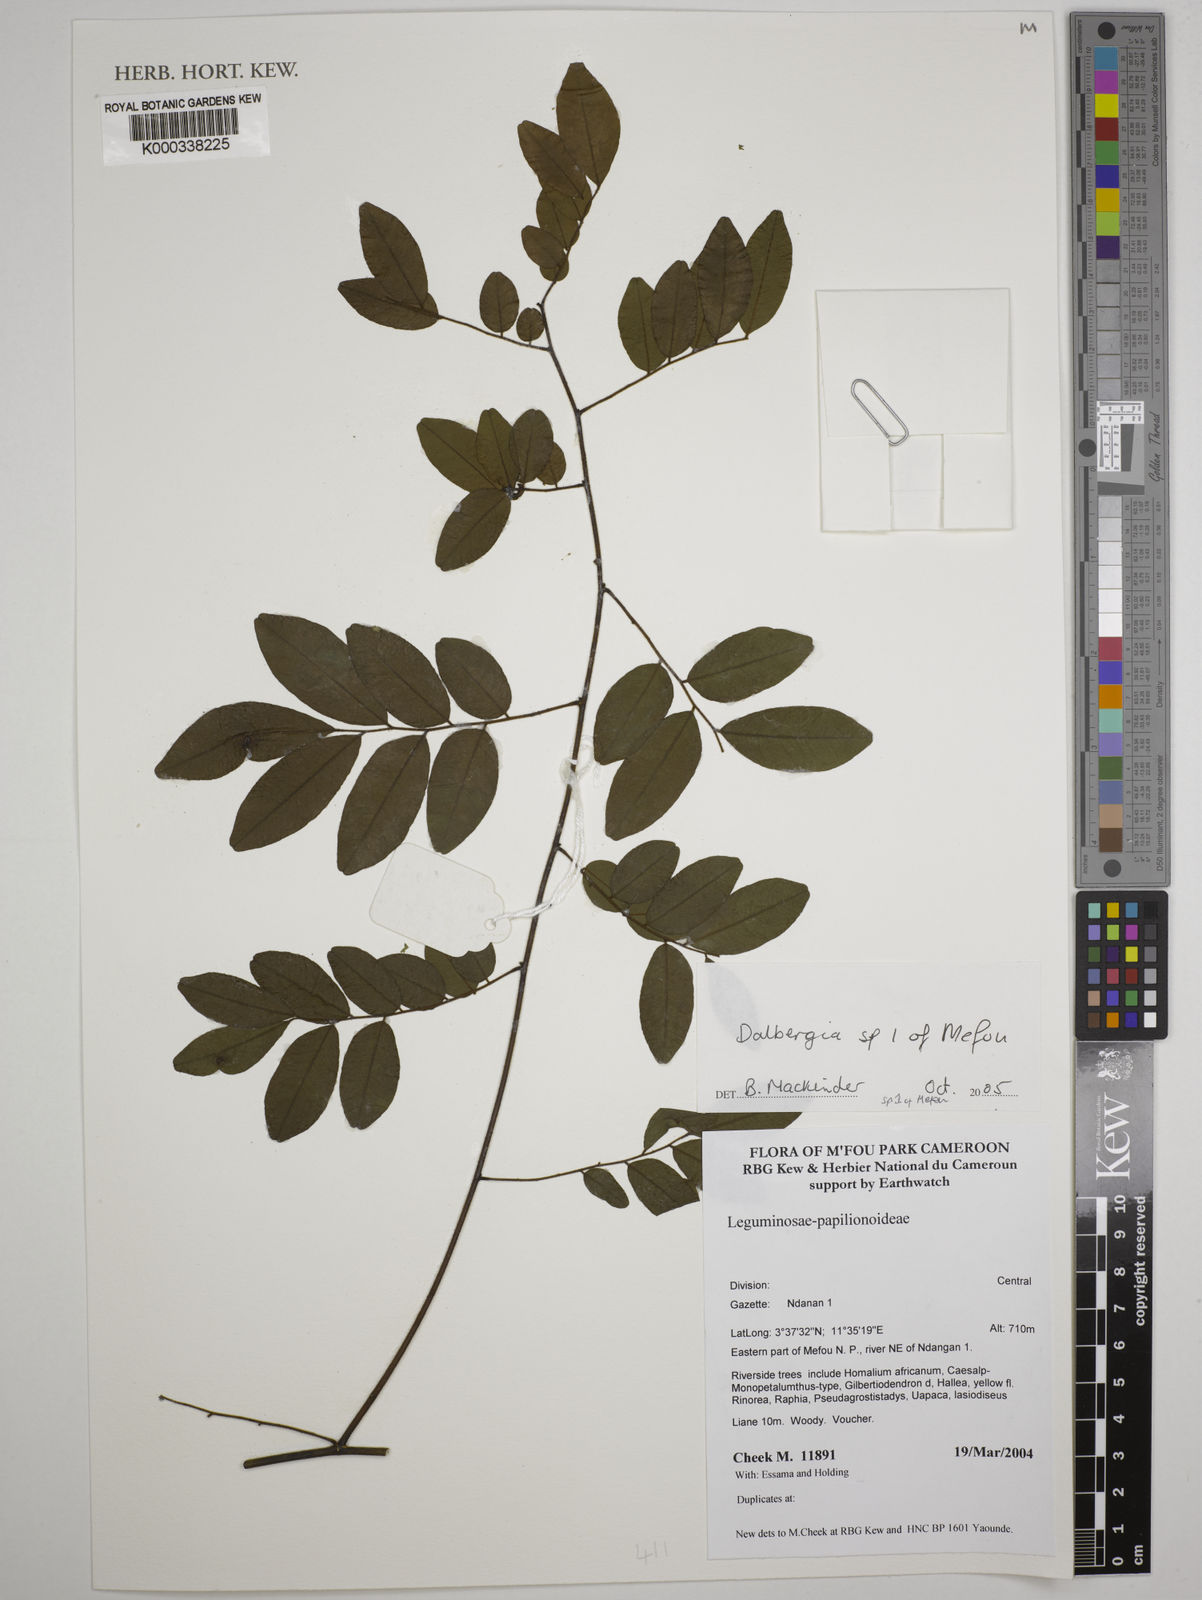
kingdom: Plantae
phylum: Tracheophyta
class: Magnoliopsida
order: Fabales
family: Fabaceae
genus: Dalbergia
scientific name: Dalbergia
